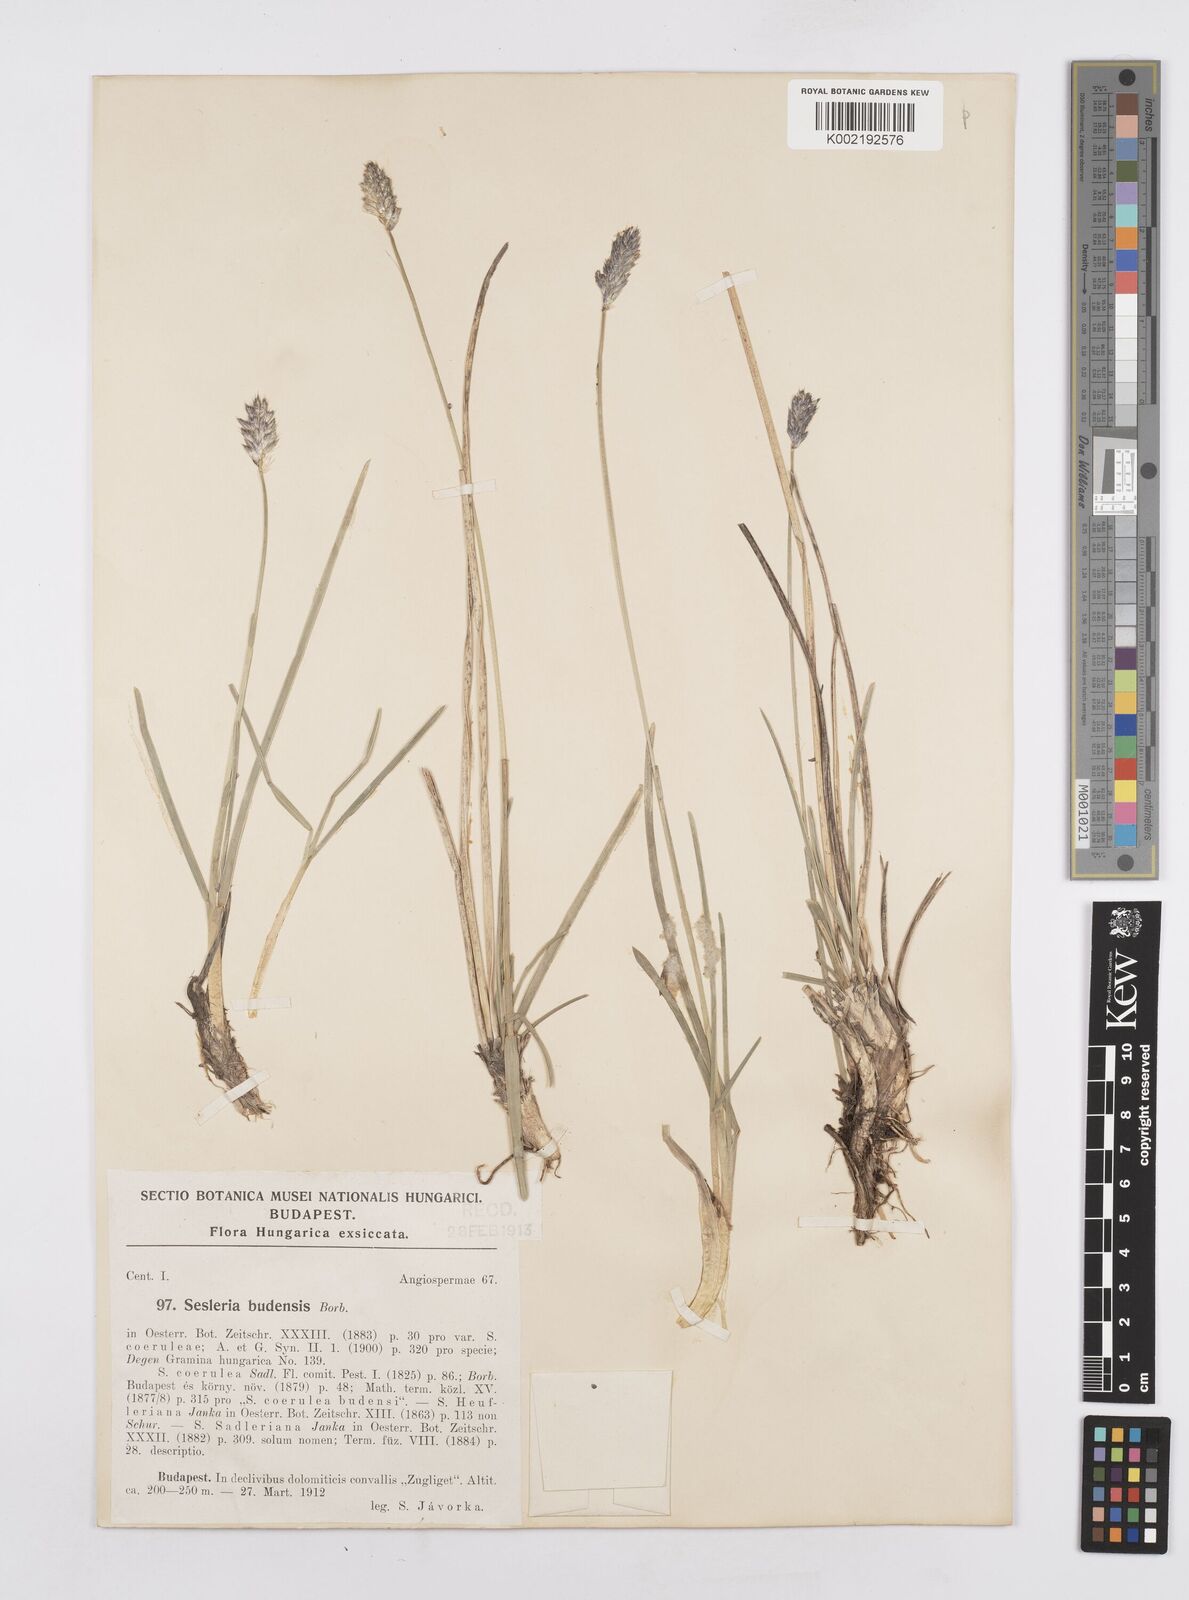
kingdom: Plantae
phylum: Tracheophyta
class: Liliopsida
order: Poales
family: Poaceae
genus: Sesleria
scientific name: Sesleria sadleriana
